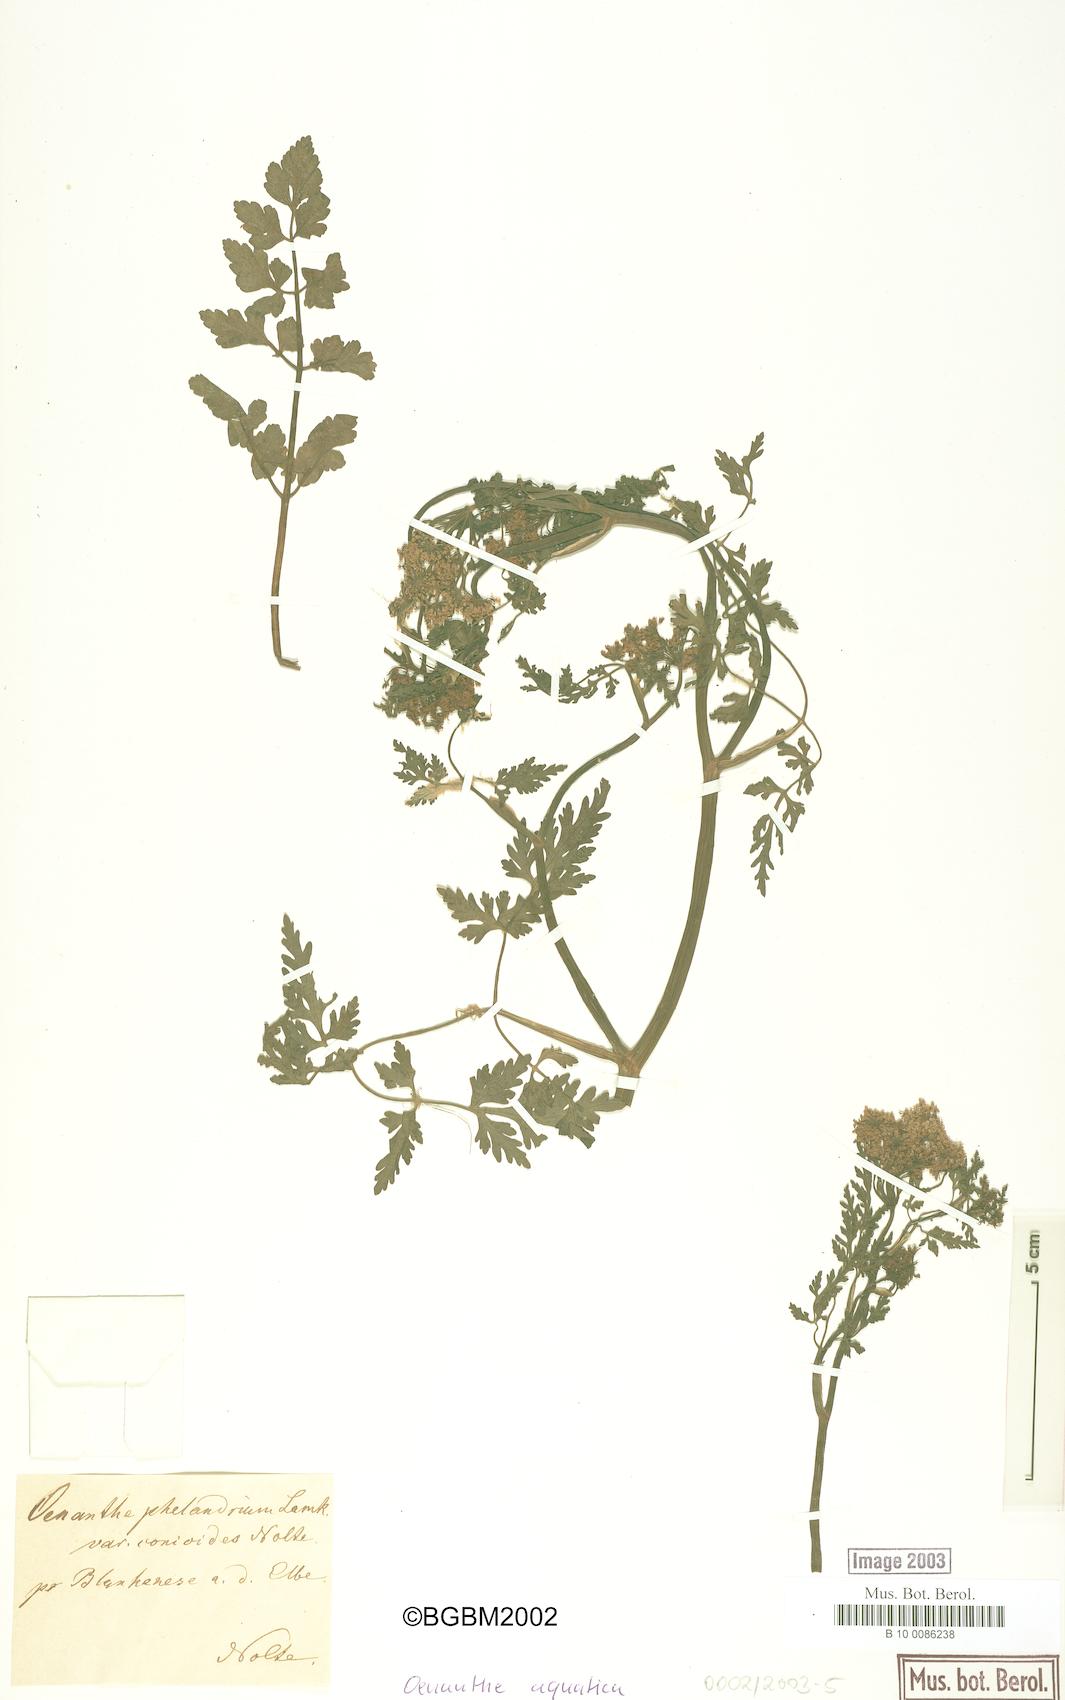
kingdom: Plantae
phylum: Tracheophyta
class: Magnoliopsida
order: Apiales
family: Apiaceae
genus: Oenanthe
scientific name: Oenanthe aquatica
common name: Fine-leaved water-dropwort
